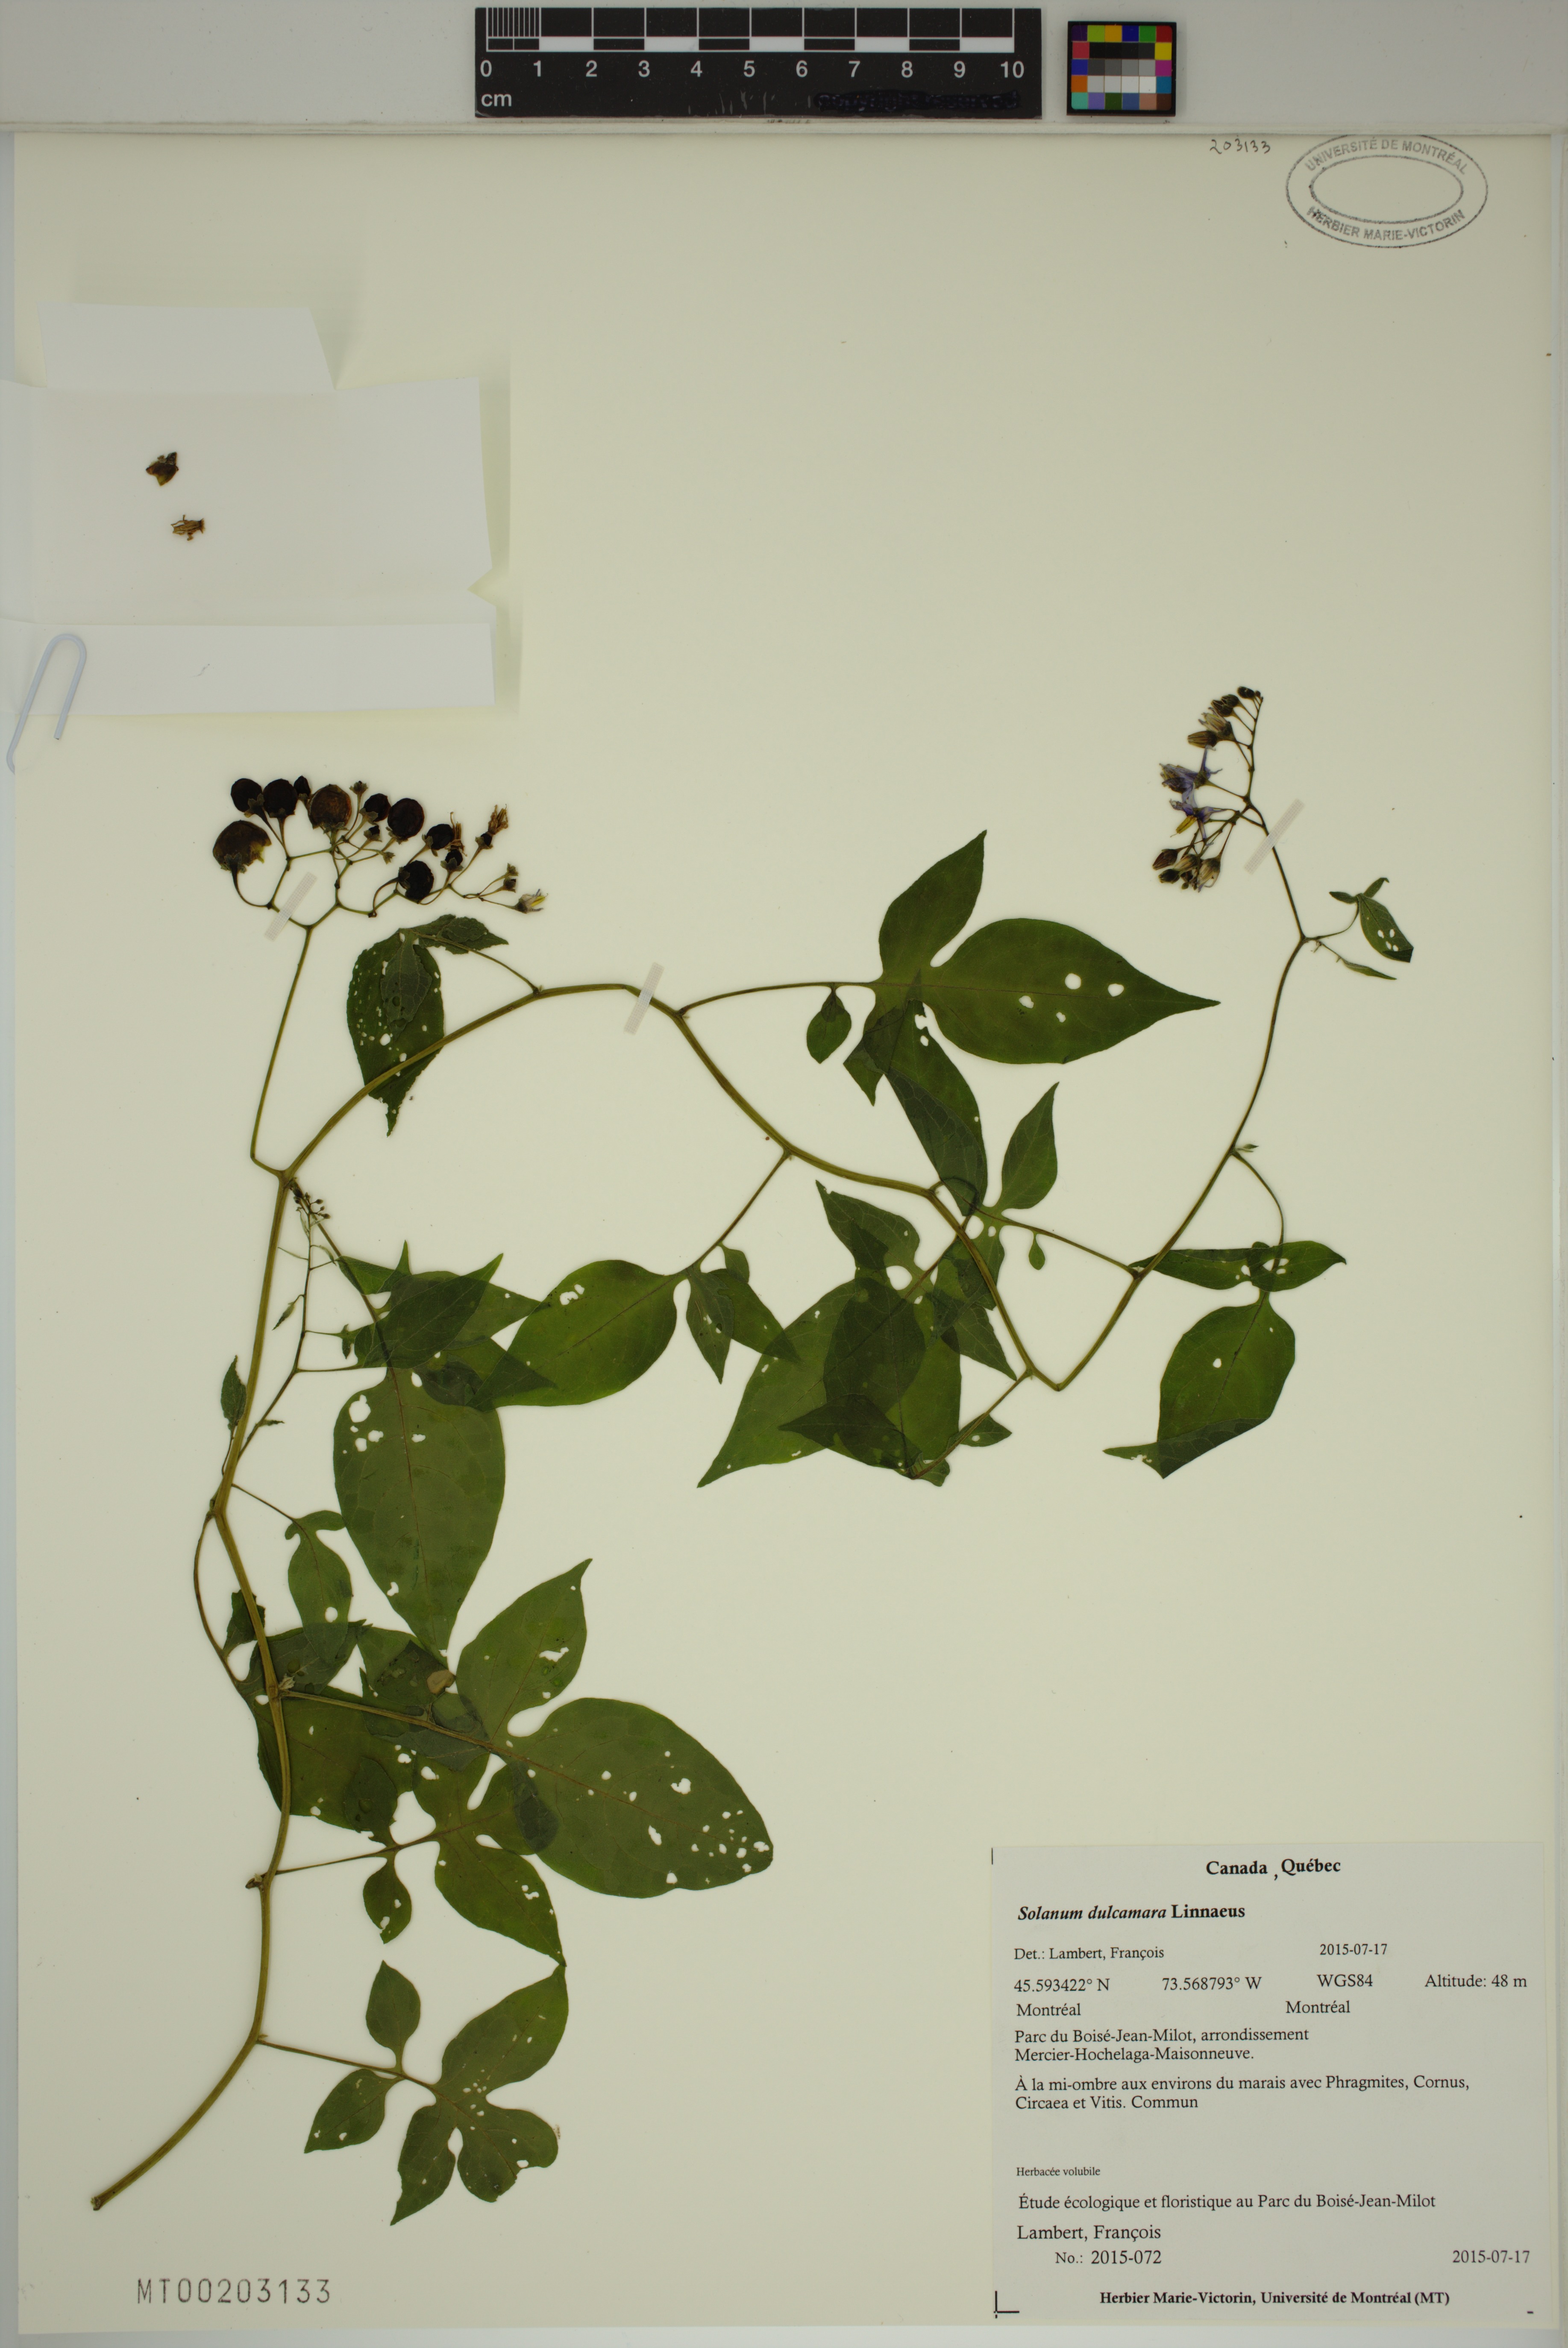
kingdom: Plantae
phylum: Tracheophyta
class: Magnoliopsida
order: Solanales
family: Solanaceae
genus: Solanum
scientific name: Solanum dulcamara
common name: Climbing nightshade
